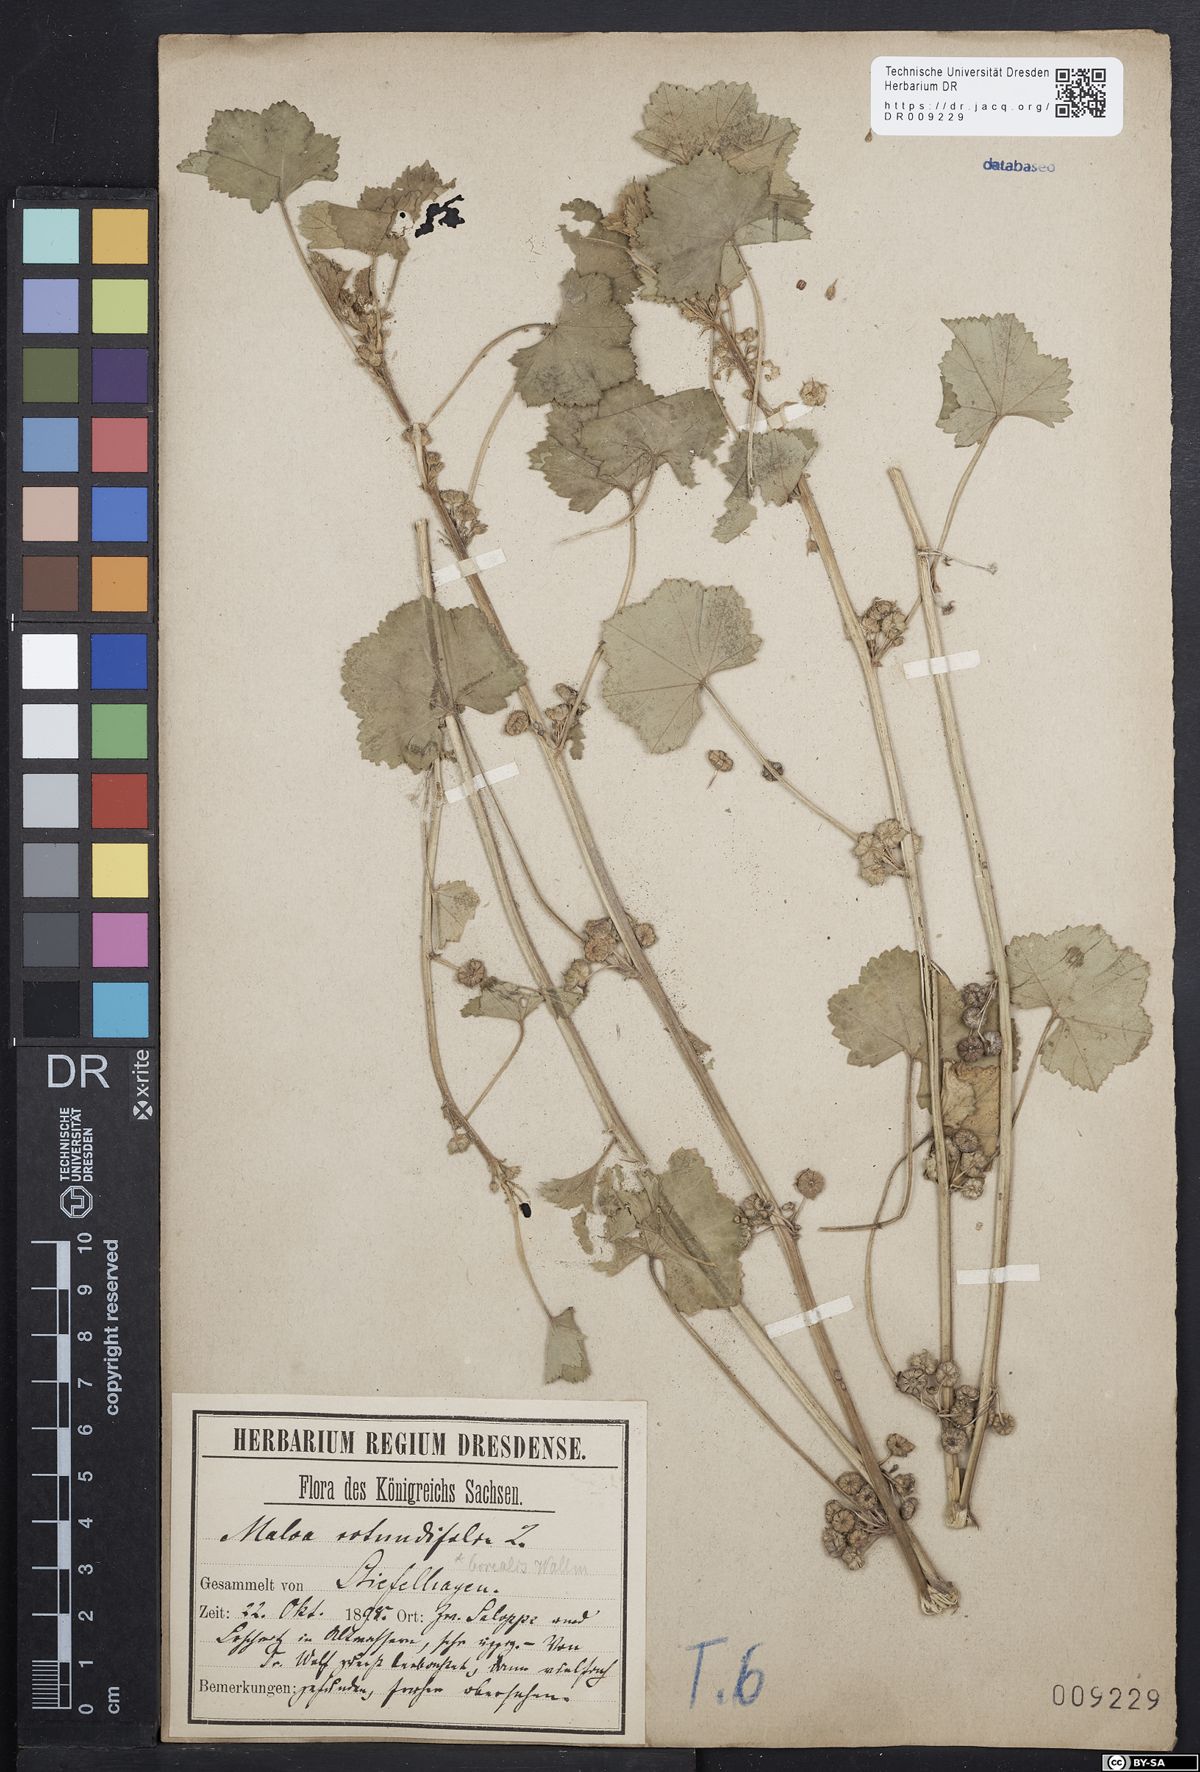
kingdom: Plantae
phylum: Tracheophyta
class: Magnoliopsida
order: Malvales
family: Malvaceae
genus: Malva
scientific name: Malva pusilla
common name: Small mallow
